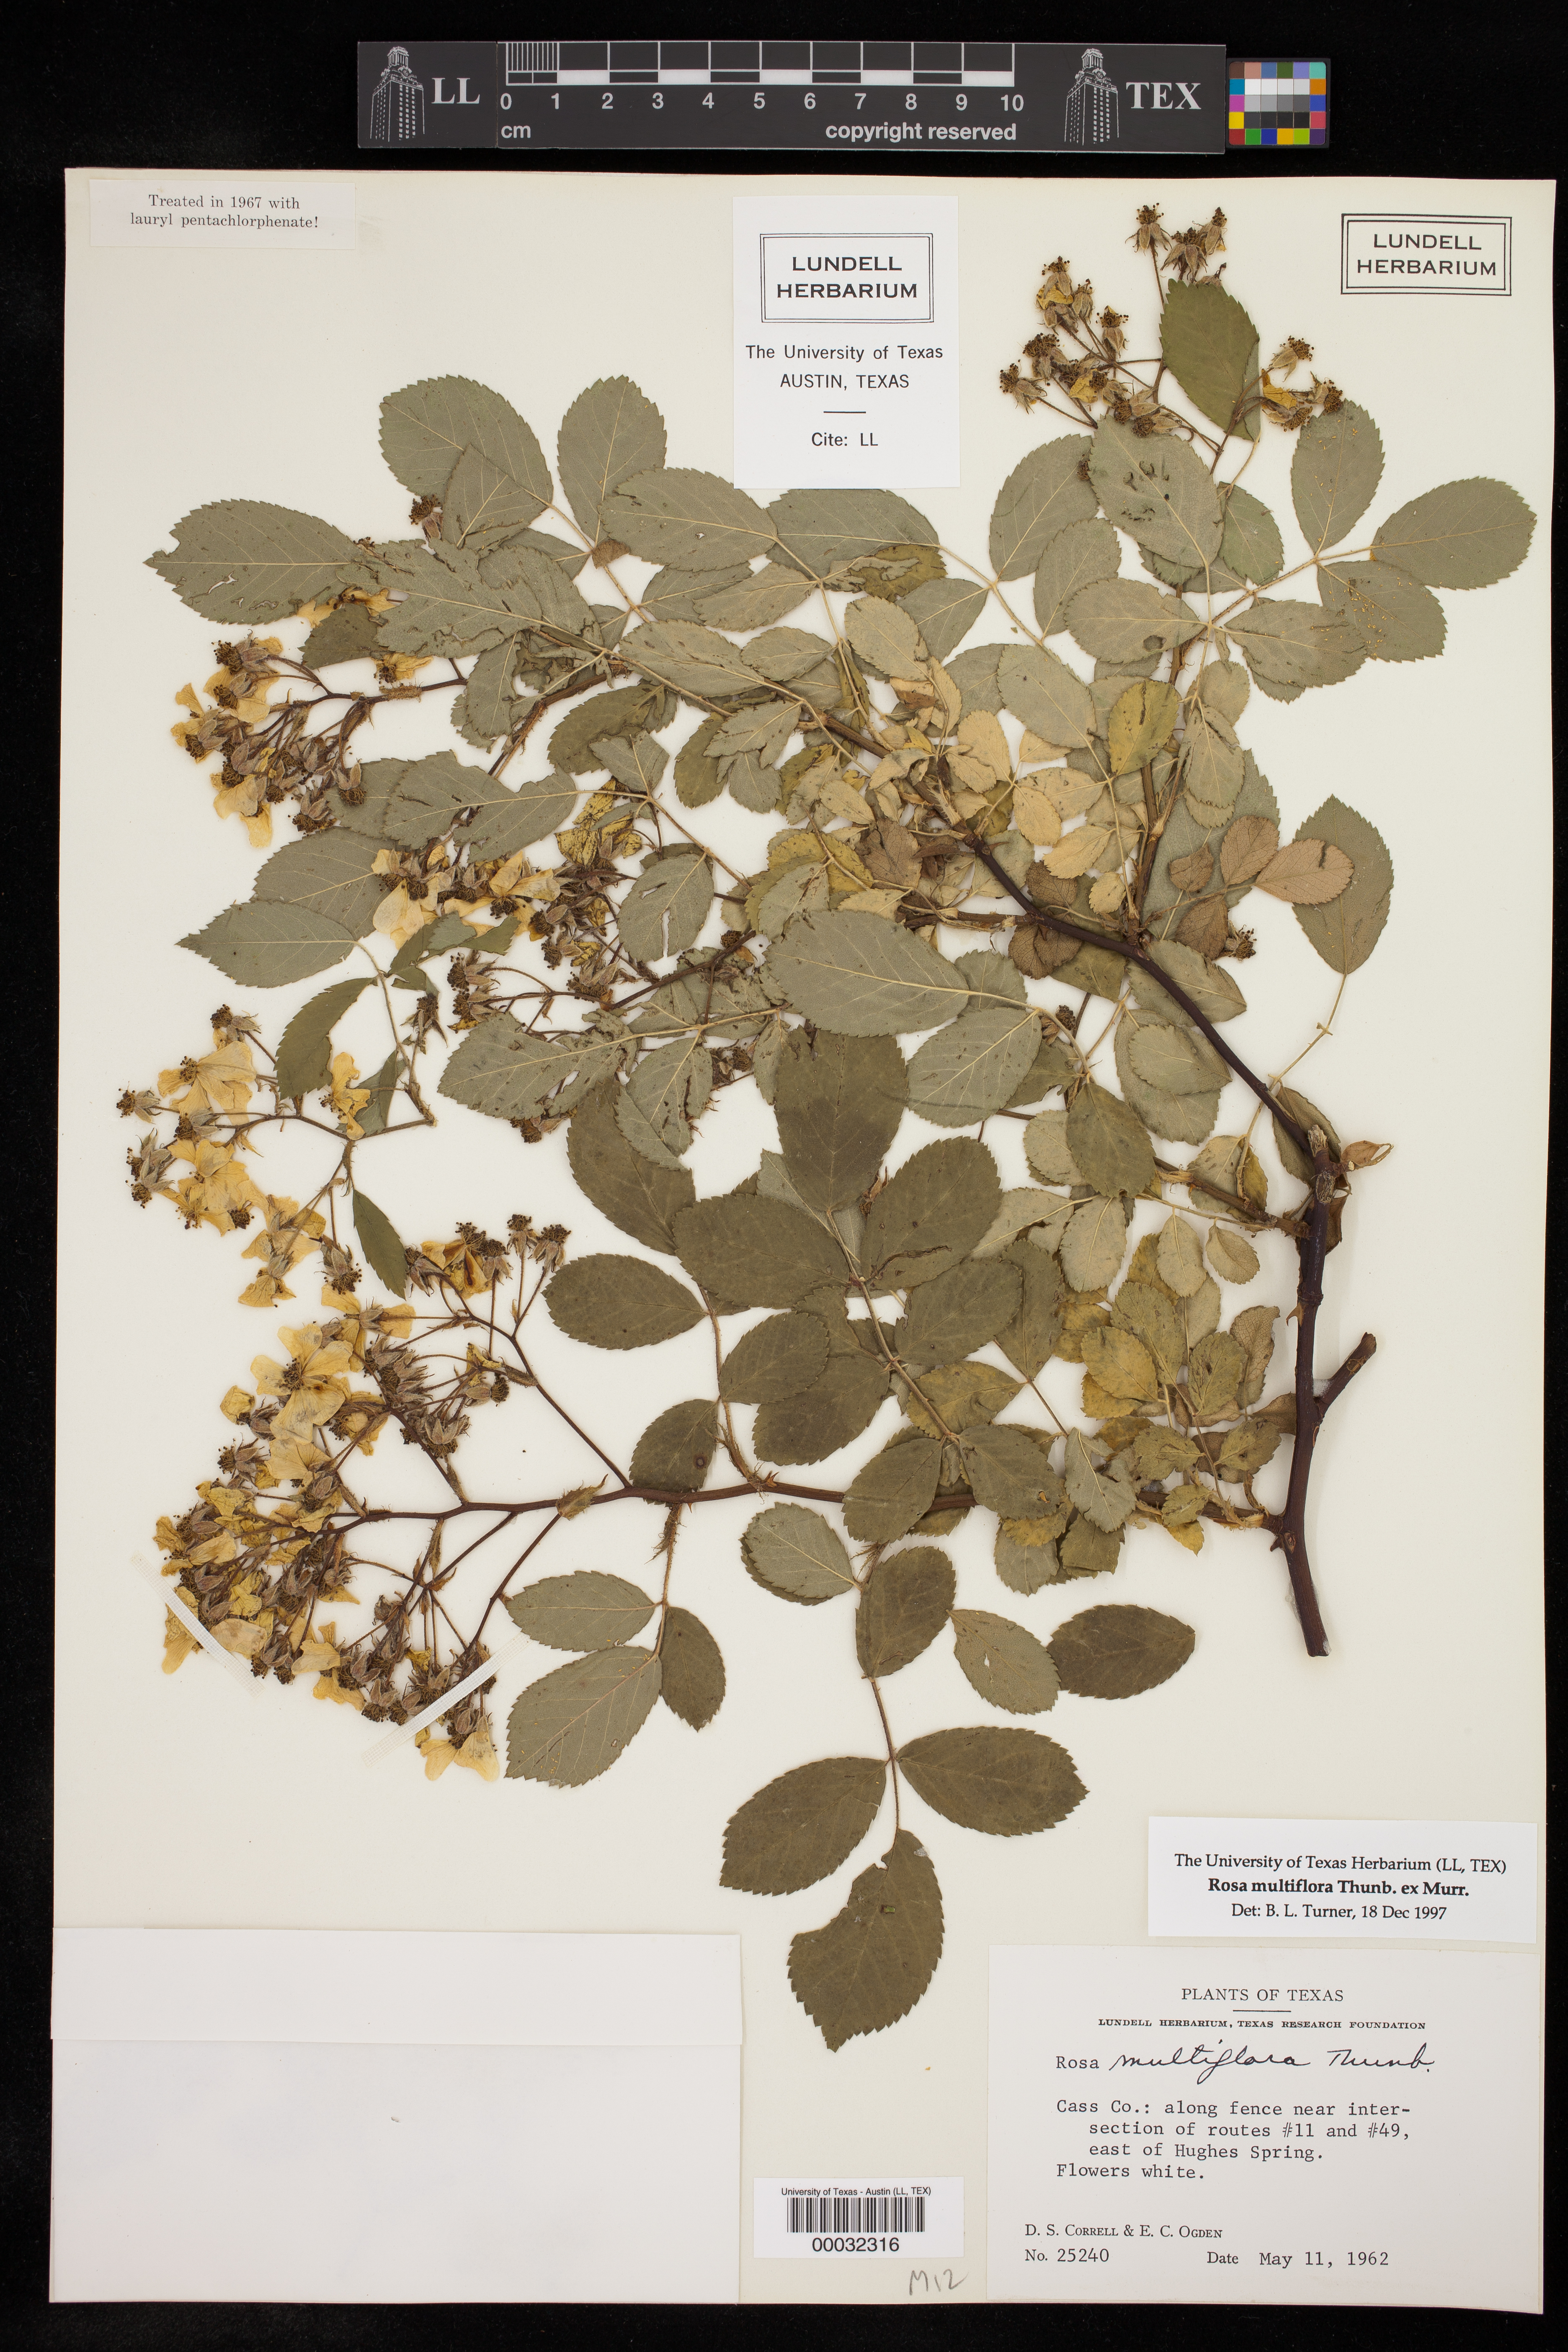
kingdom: Plantae
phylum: Tracheophyta
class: Magnoliopsida
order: Rosales
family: Rosaceae
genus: Rosa
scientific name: Rosa multiflora
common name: Multiflora rose
